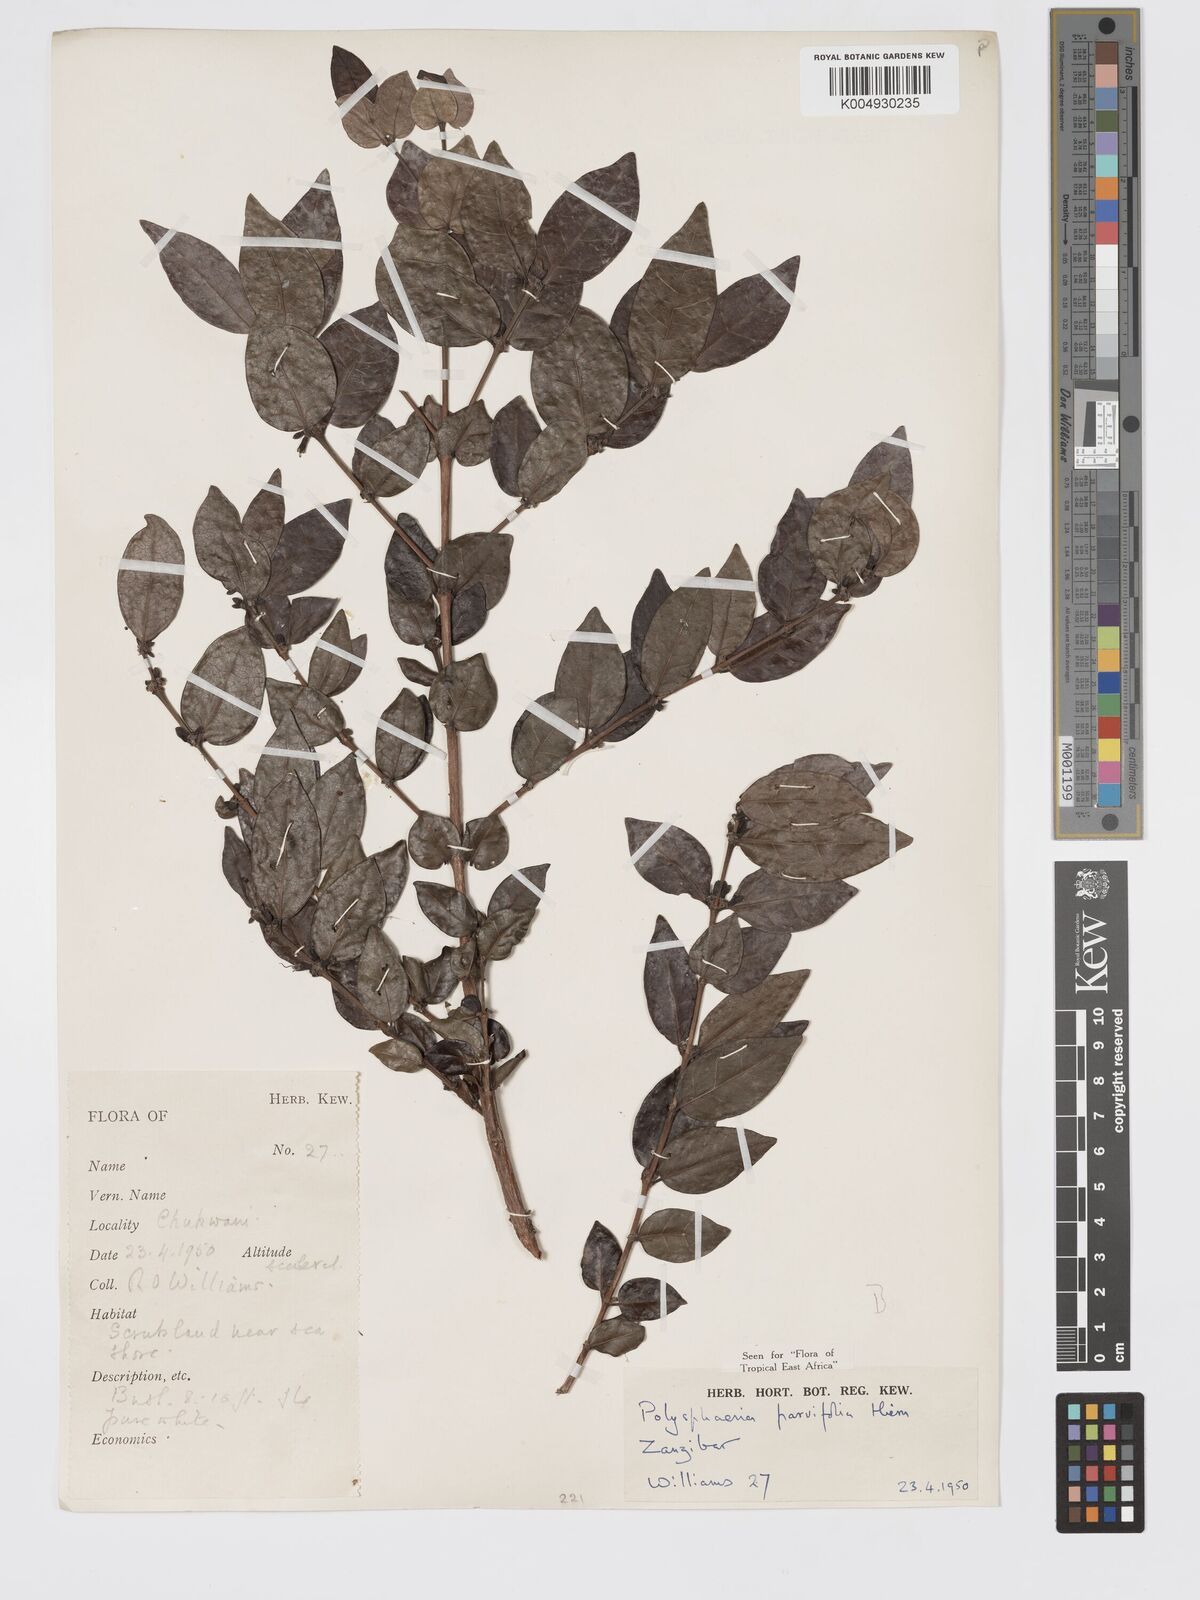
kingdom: Plantae
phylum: Tracheophyta
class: Magnoliopsida
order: Gentianales
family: Rubiaceae
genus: Polysphaeria
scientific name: Polysphaeria parvifolia
